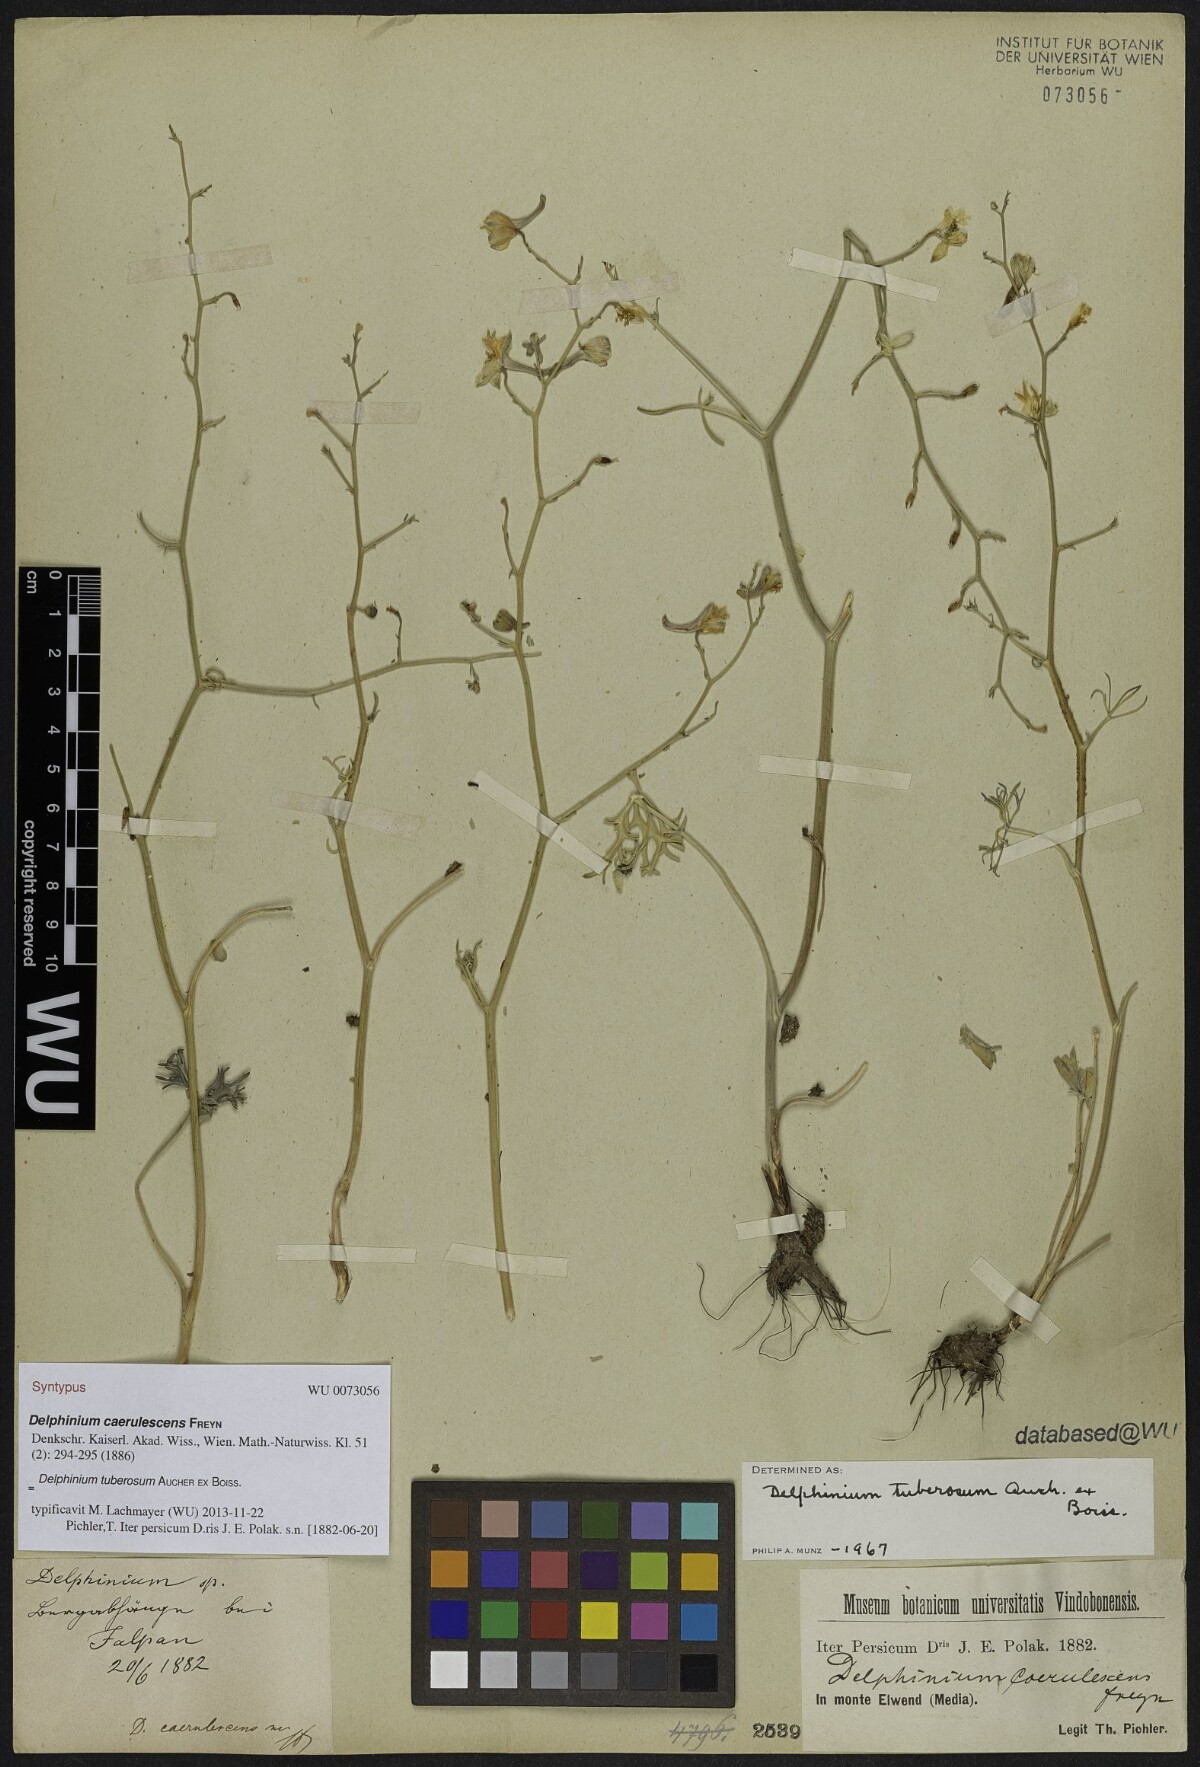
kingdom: Plantae
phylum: Tracheophyta
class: Magnoliopsida
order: Ranunculales
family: Ranunculaceae
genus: Delphinium
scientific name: Delphinium tuberosum
